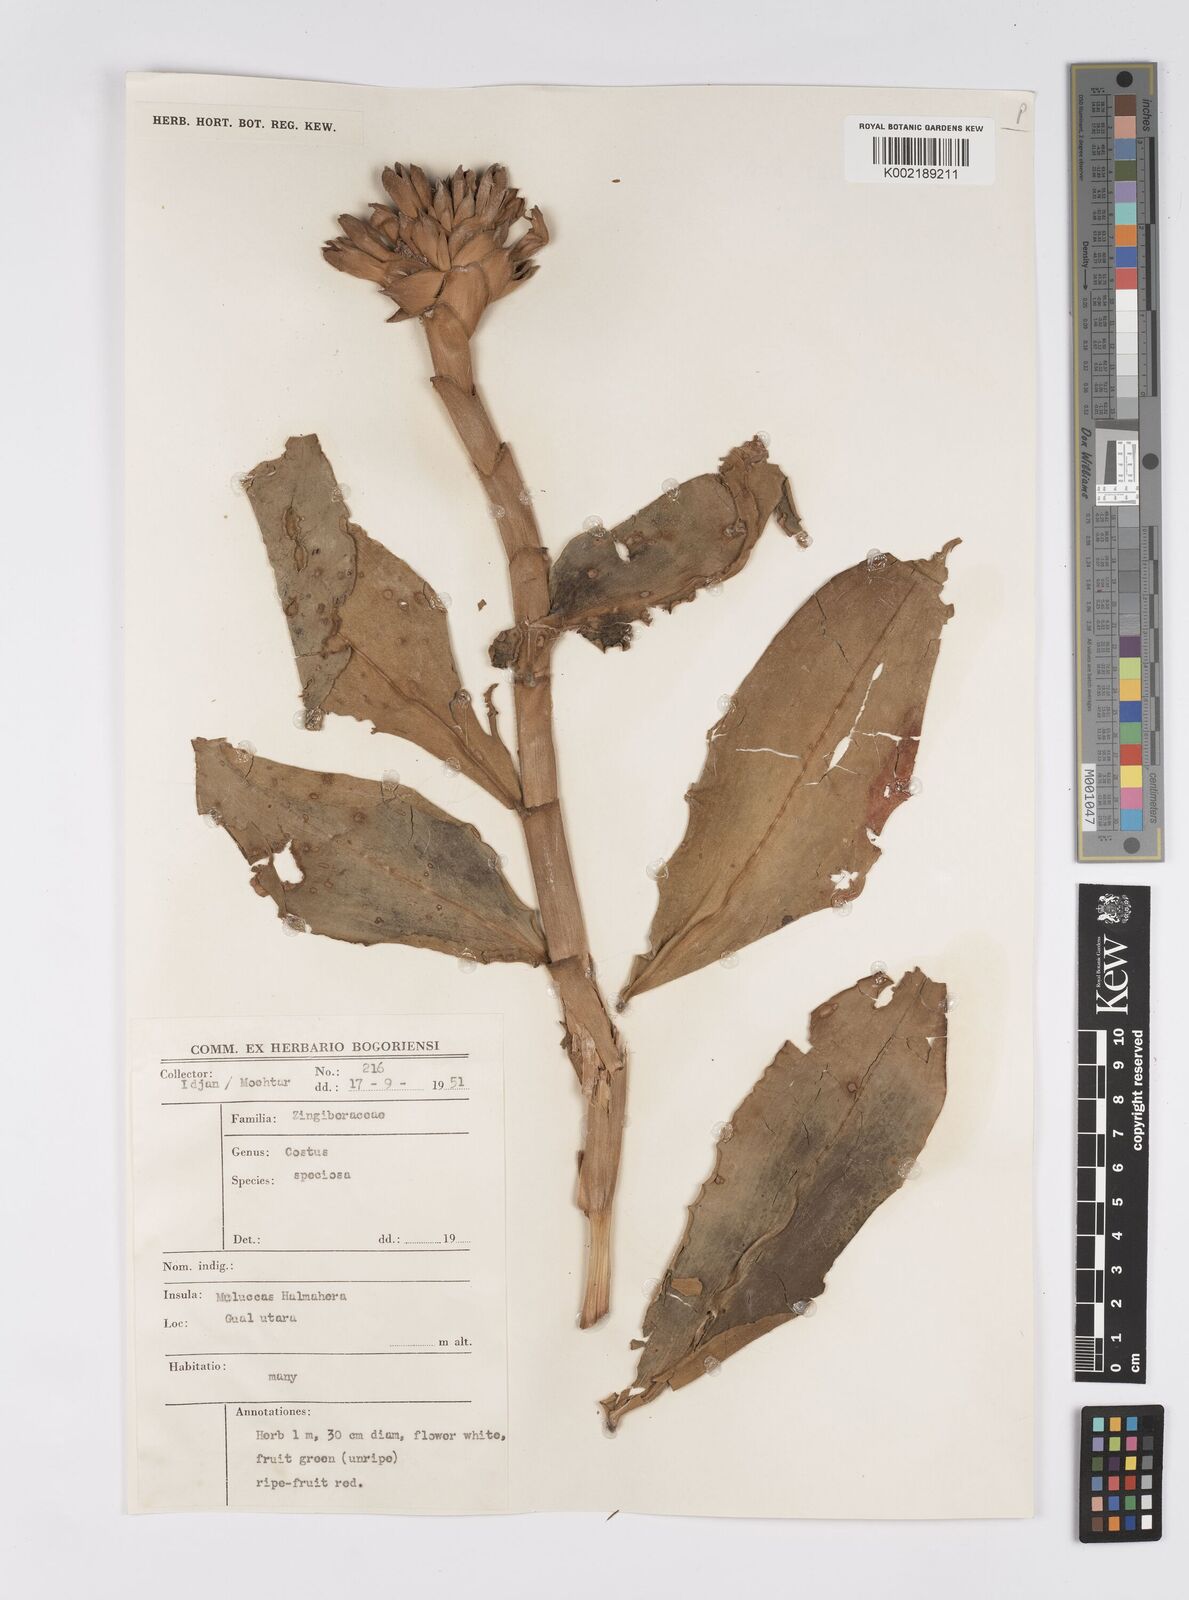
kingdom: Plantae
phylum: Tracheophyta
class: Liliopsida
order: Zingiberales
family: Costaceae
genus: Hellenia
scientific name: Hellenia speciosa
